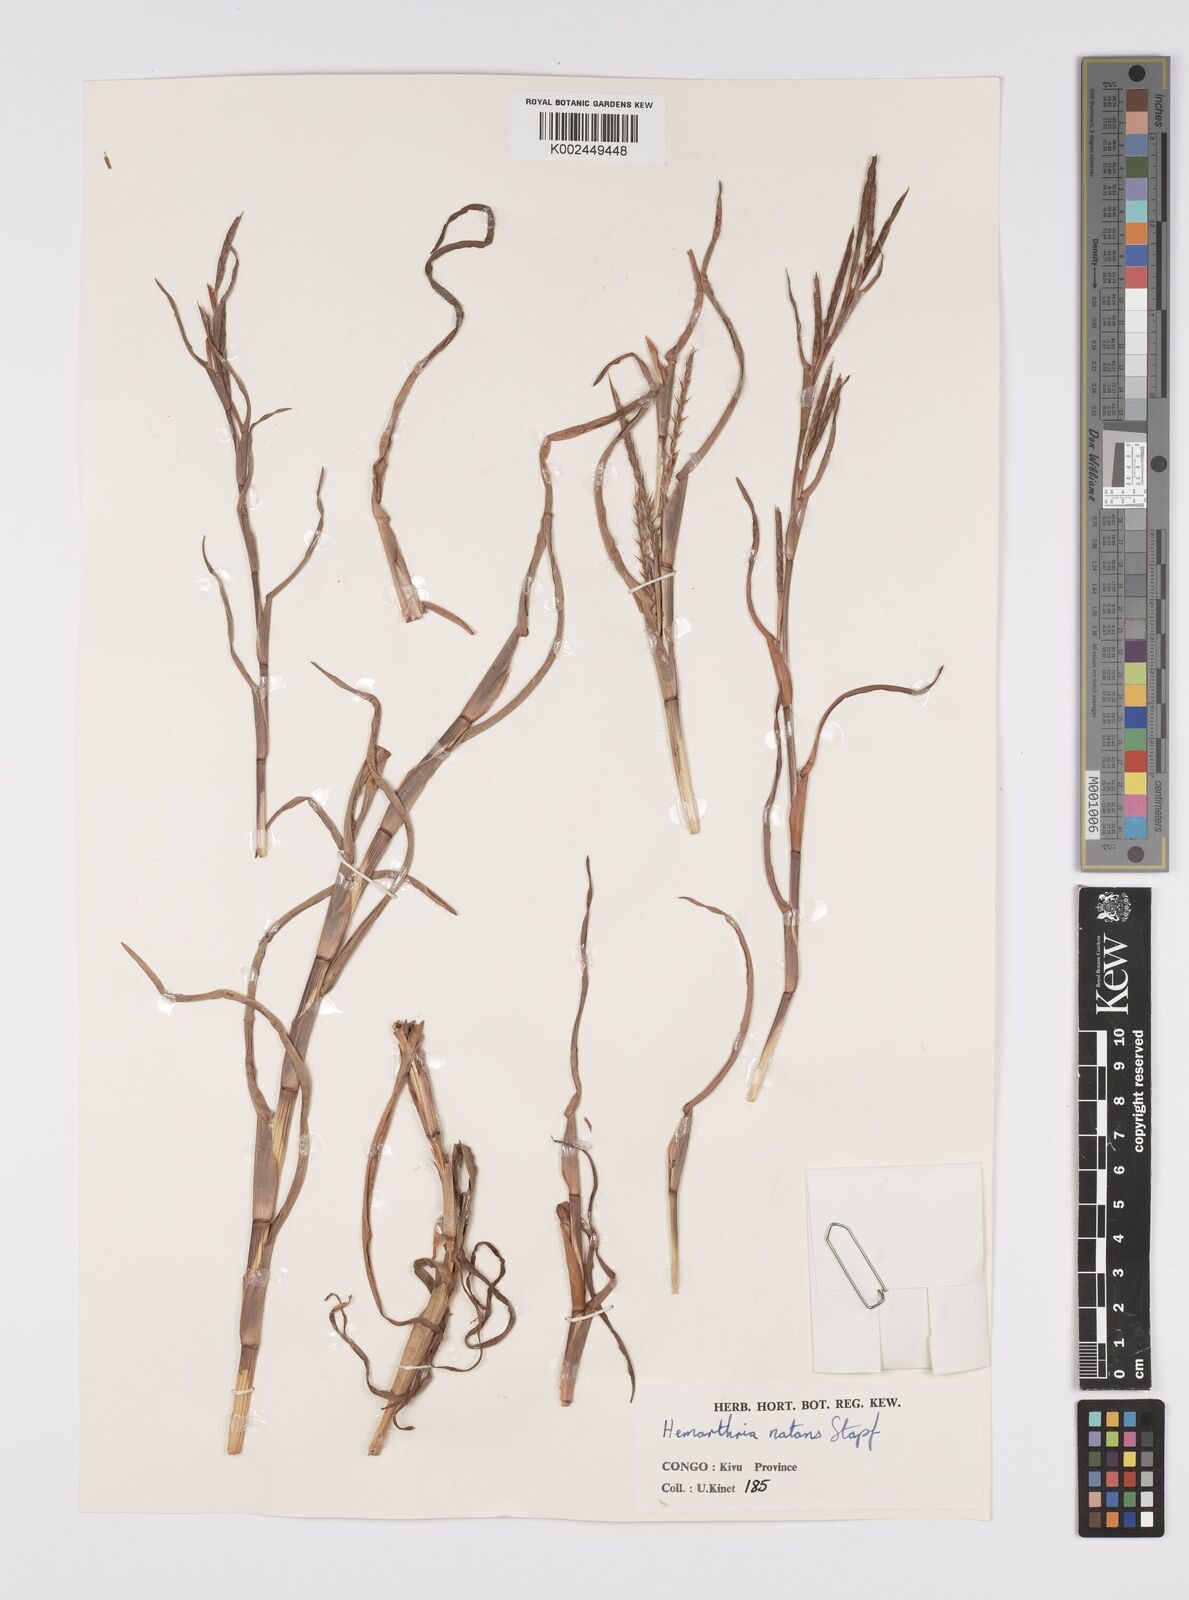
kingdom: Plantae
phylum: Tracheophyta
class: Liliopsida
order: Poales
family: Poaceae
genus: Hemarthria
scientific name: Hemarthria natans
